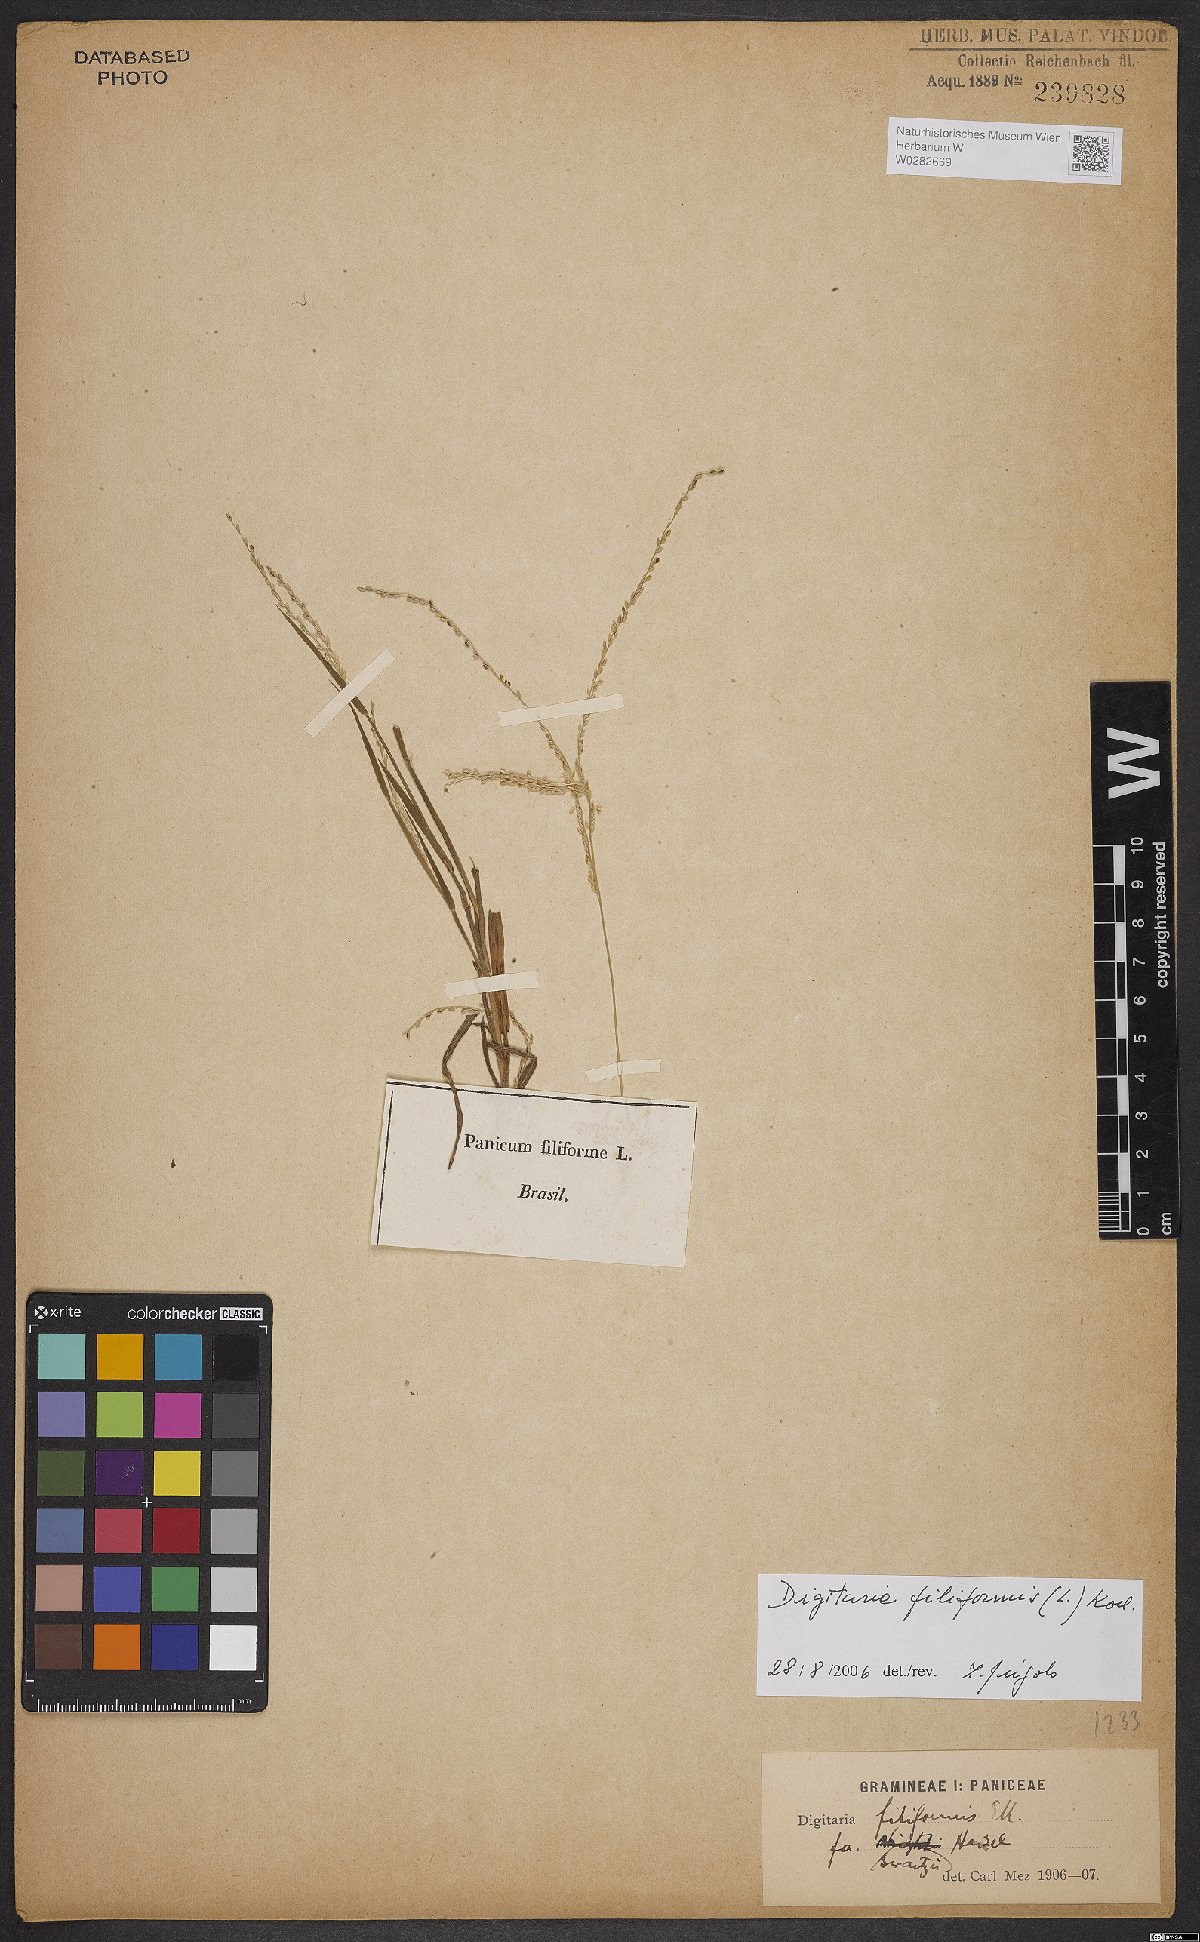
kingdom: Plantae
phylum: Tracheophyta
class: Liliopsida
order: Poales
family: Poaceae
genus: Digitaria
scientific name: Digitaria filiformis
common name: Slender crabgrass
